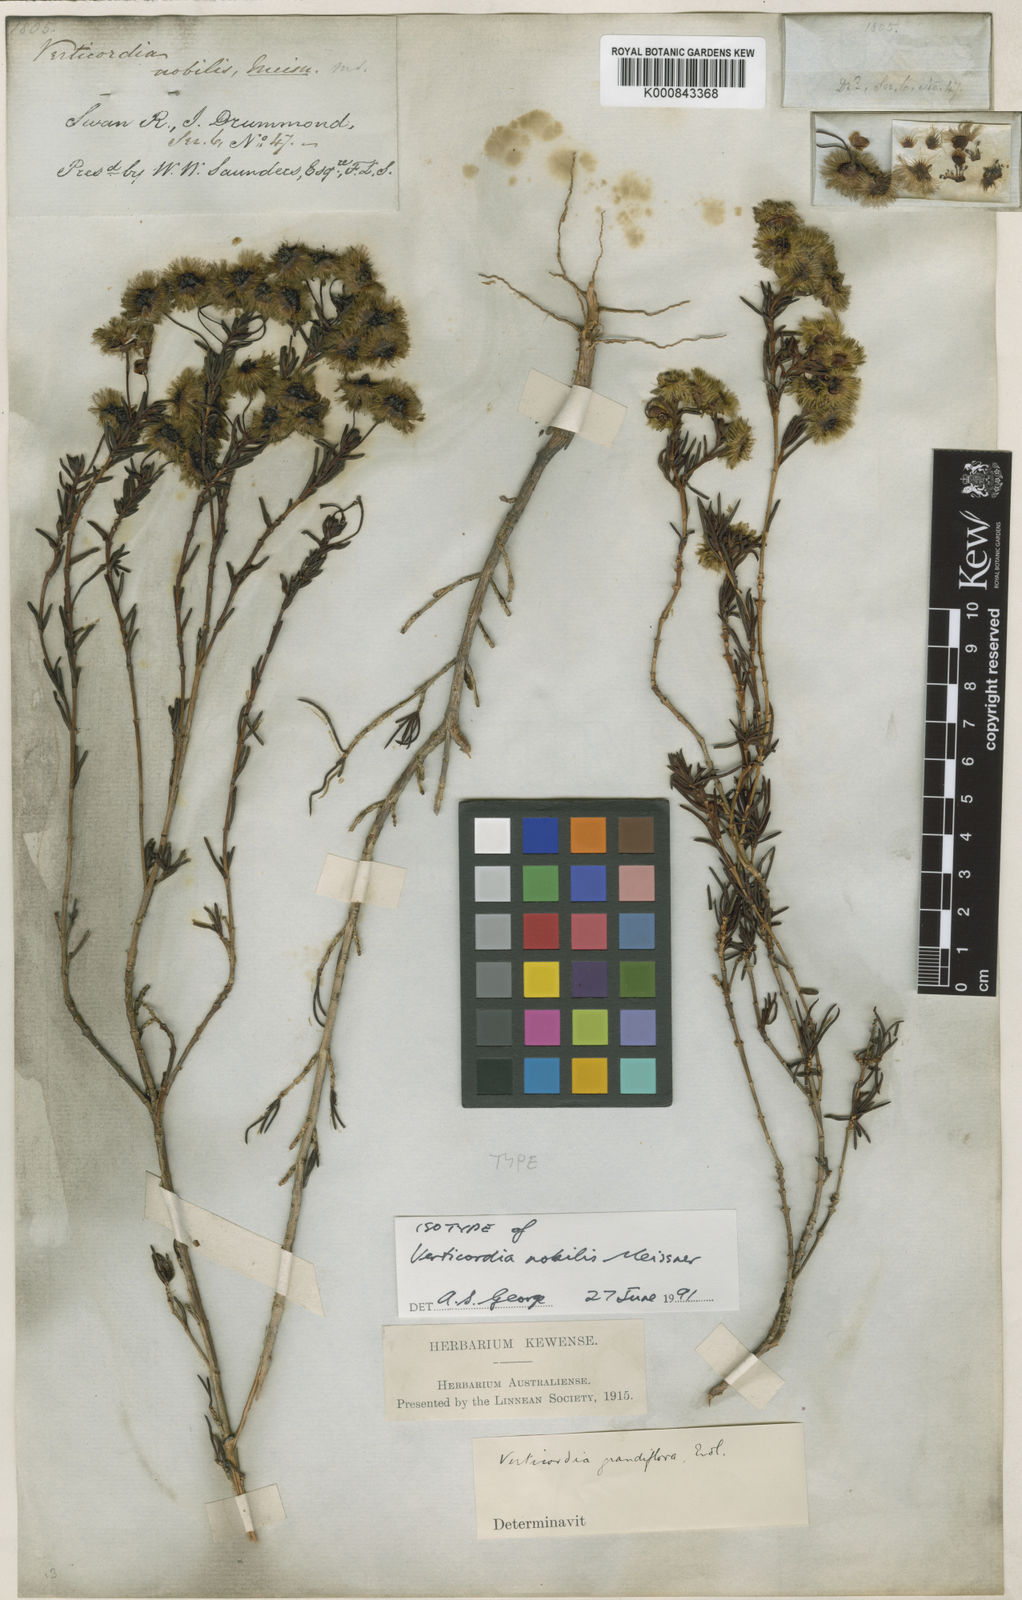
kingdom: Plantae
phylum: Tracheophyta
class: Magnoliopsida
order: Myrtales
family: Myrtaceae
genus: Verticordia
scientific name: Verticordia nobilis
